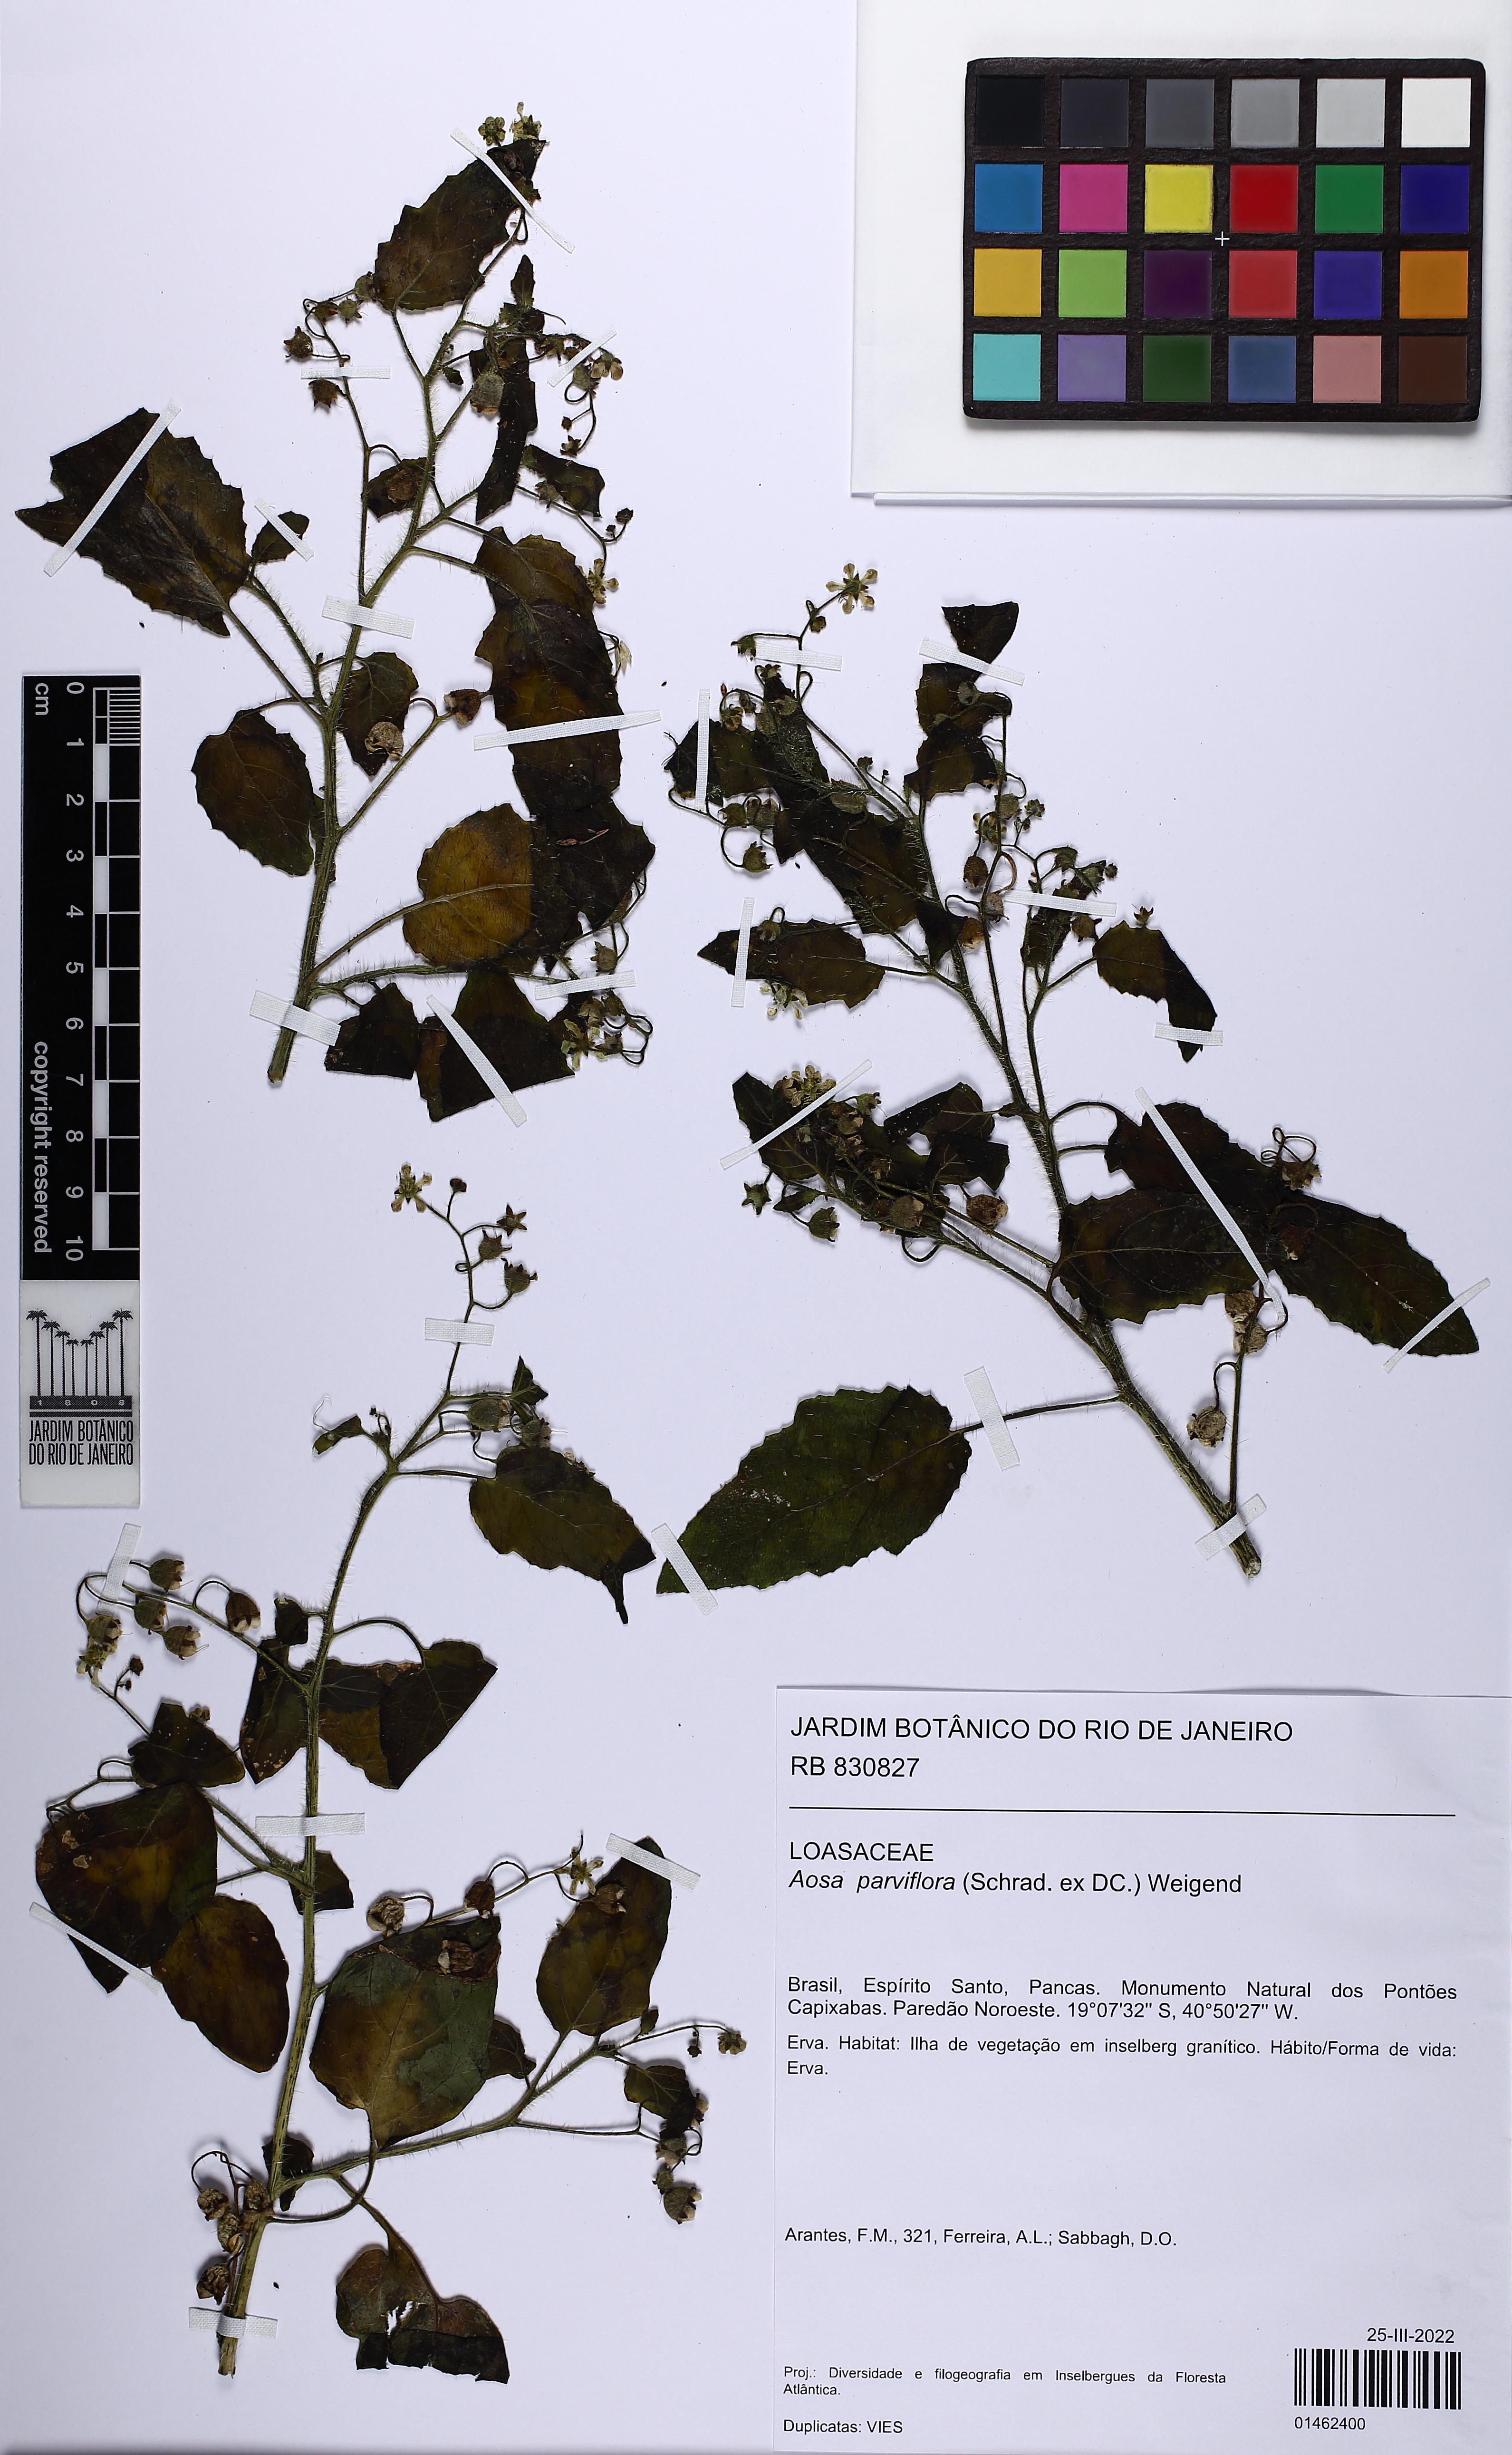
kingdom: Plantae
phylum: Tracheophyta
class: Magnoliopsida
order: Cornales
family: Loasaceae
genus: Aosa
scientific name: Aosa parviflora
